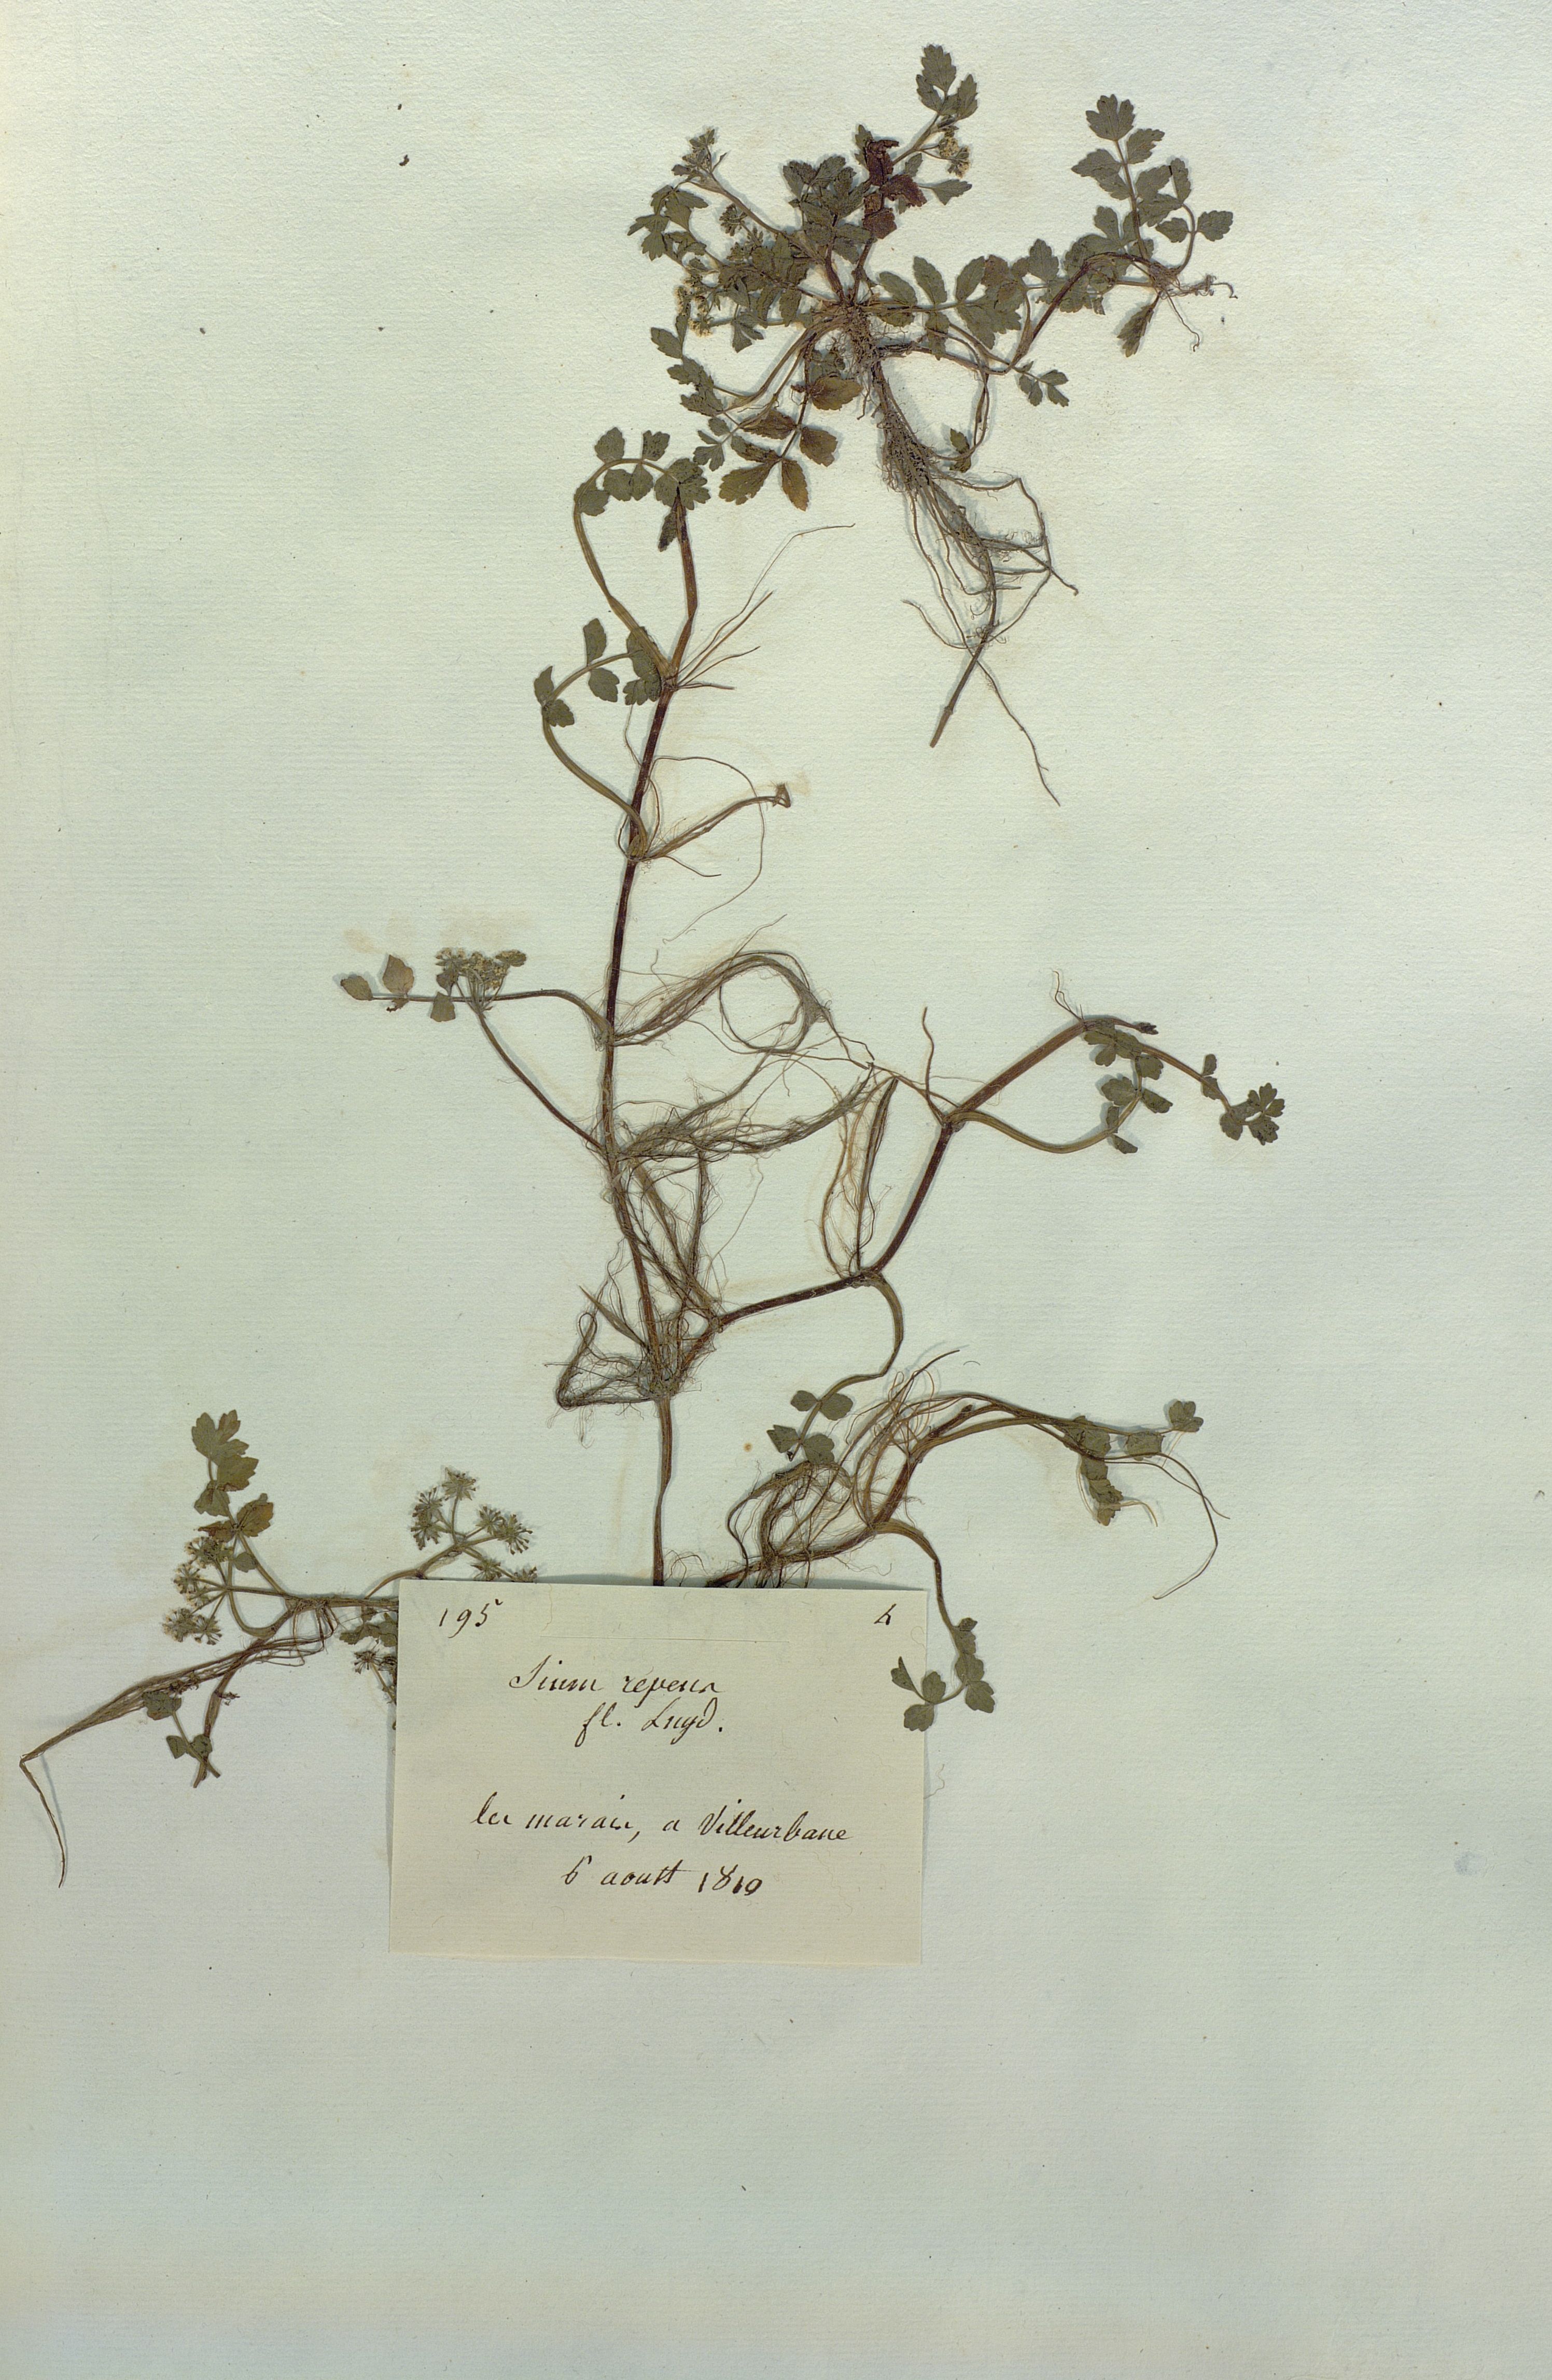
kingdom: Plantae
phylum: Tracheophyta
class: Magnoliopsida
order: Apiales
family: Apiaceae
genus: Helosciadium
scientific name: Helosciadium
